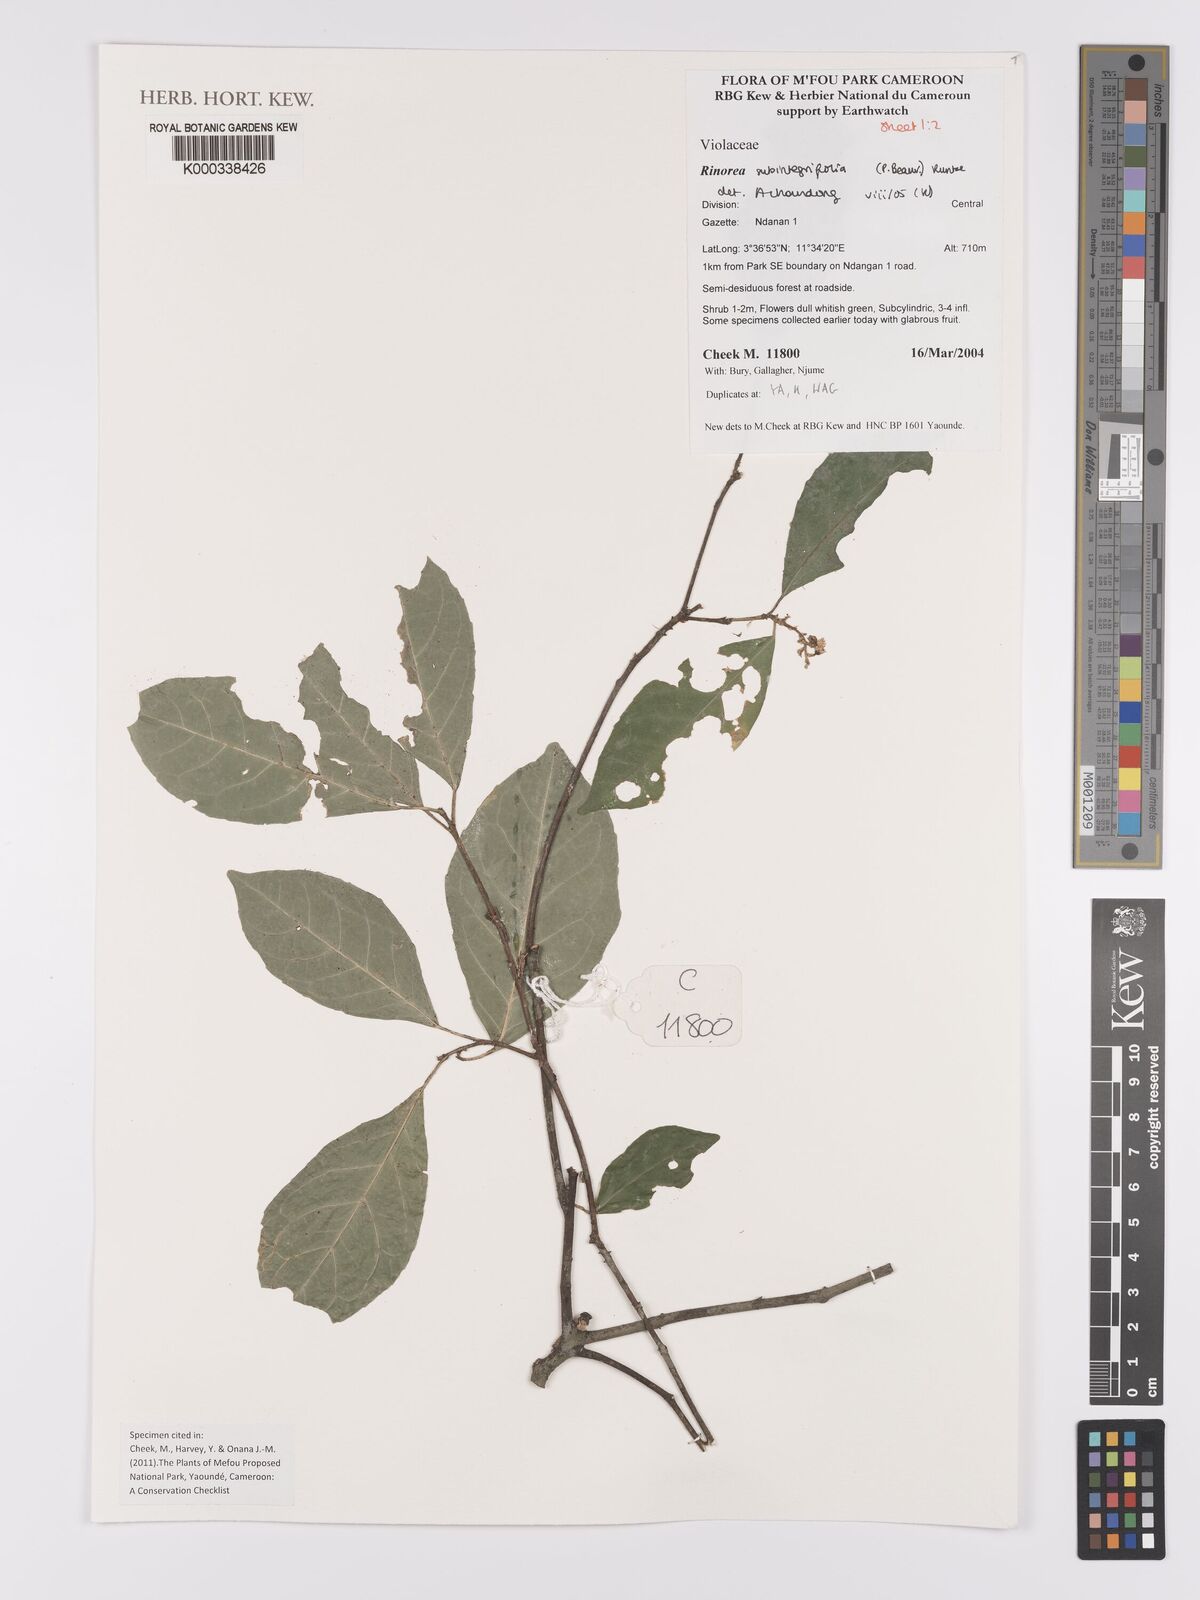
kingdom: Plantae
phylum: Tracheophyta
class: Magnoliopsida
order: Malpighiales
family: Violaceae
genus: Rinorea
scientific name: Rinorea subintegrifolia
